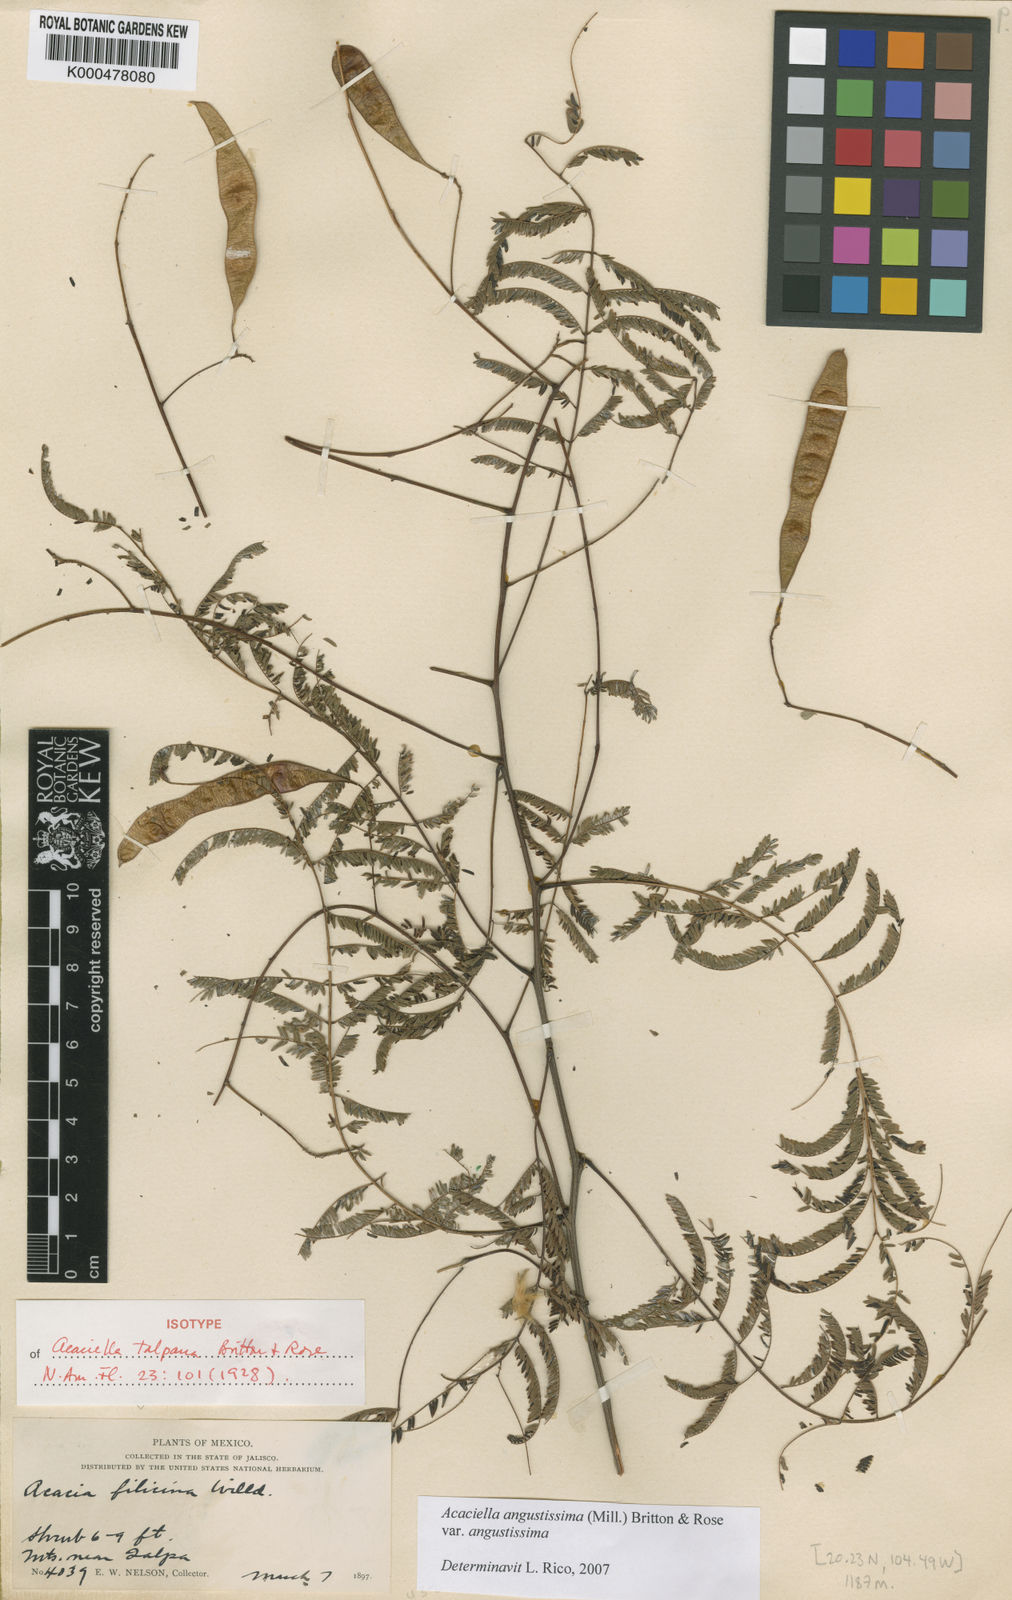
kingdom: Plantae
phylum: Tracheophyta
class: Magnoliopsida
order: Fabales
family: Fabaceae
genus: Acaciella
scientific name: Acaciella angustissima
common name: Prairie acacia
